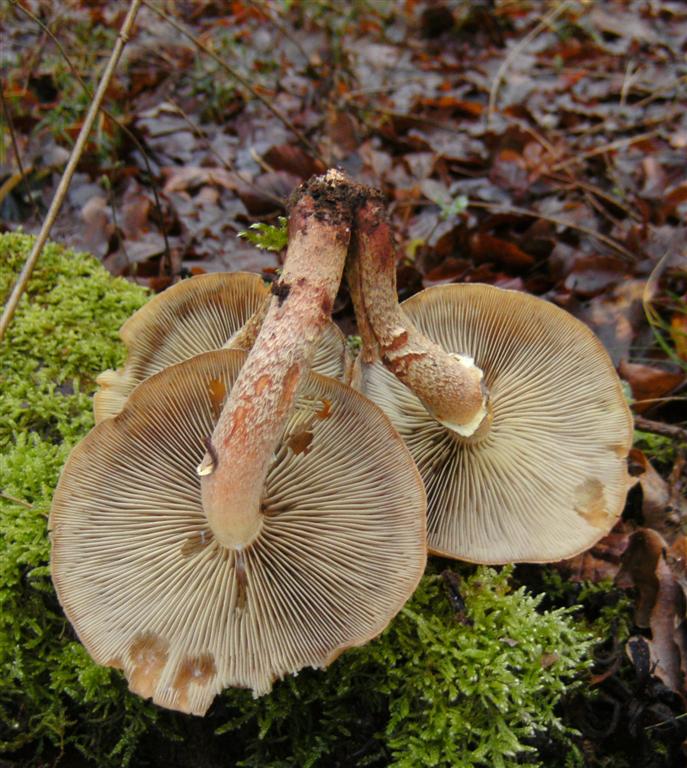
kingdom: Fungi
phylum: Basidiomycota
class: Agaricomycetes
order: Agaricales
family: Strophariaceae
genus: Hypholoma
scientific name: Hypholoma lateritium
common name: teglrød svovlhat
